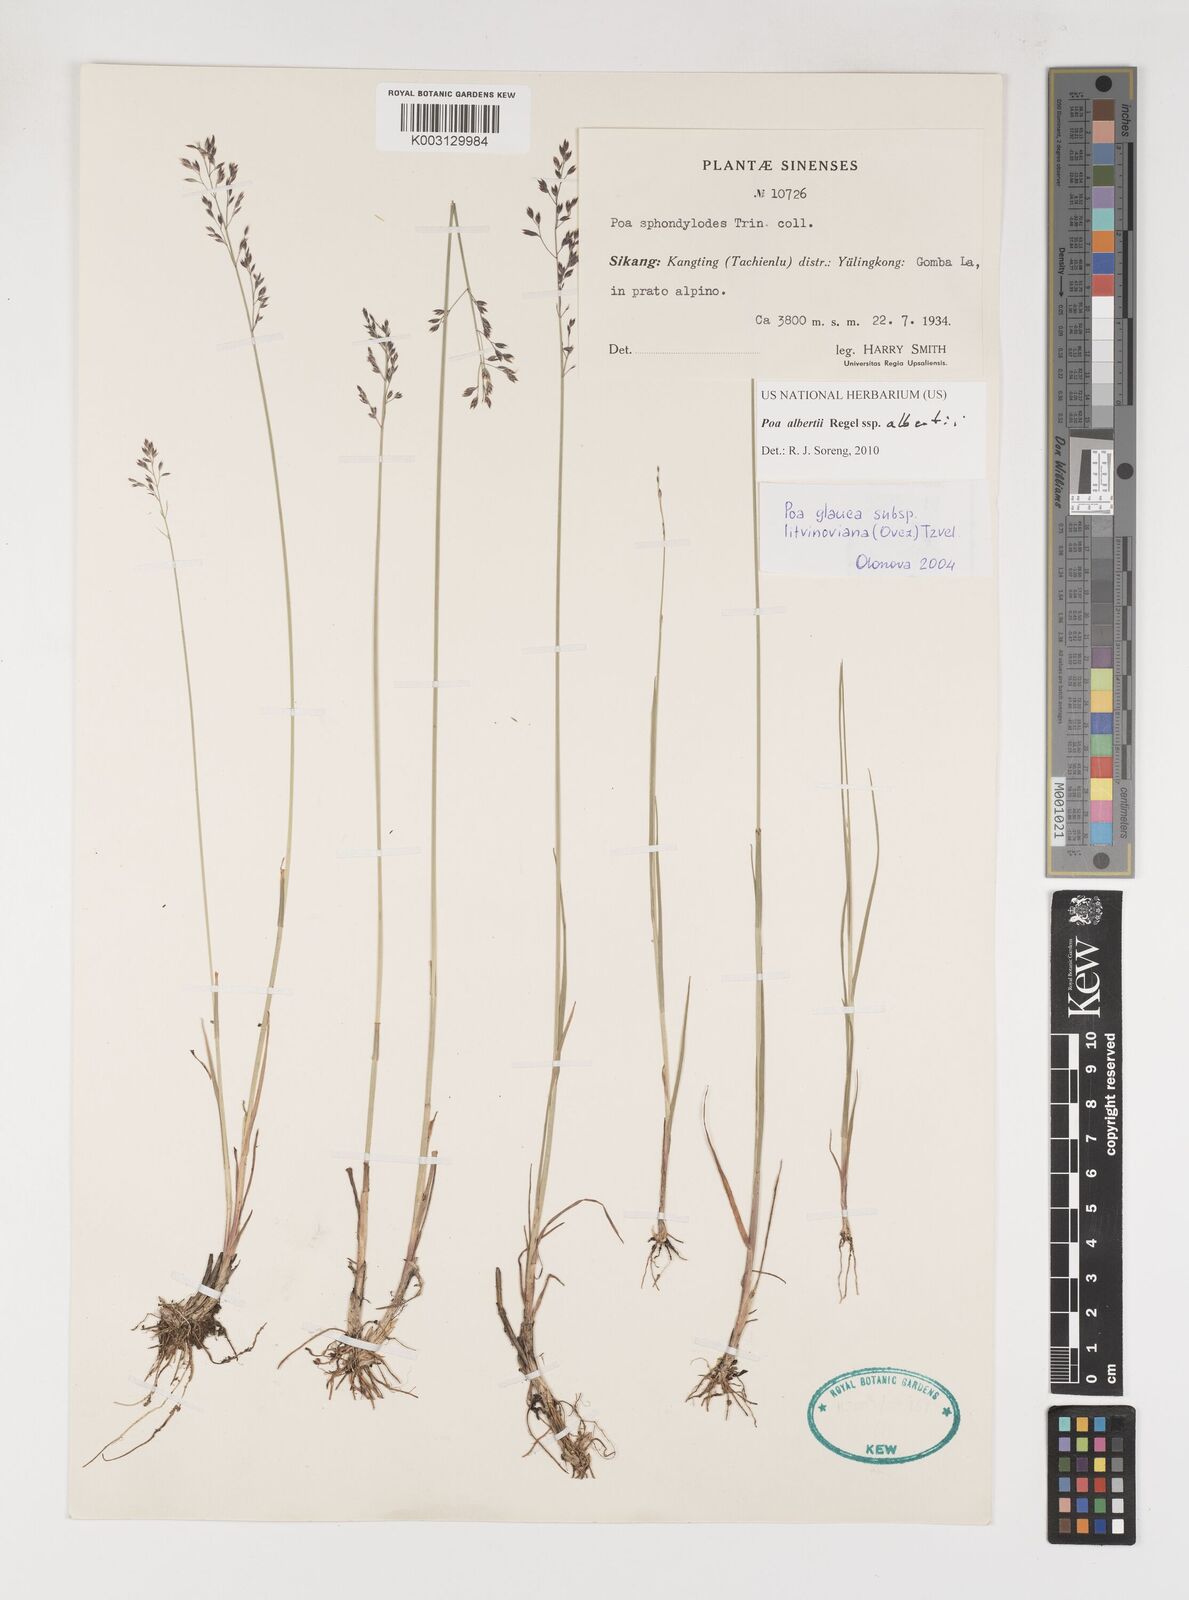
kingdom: Plantae
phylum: Tracheophyta
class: Liliopsida
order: Poales
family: Poaceae
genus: Poa
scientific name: Poa alberti
